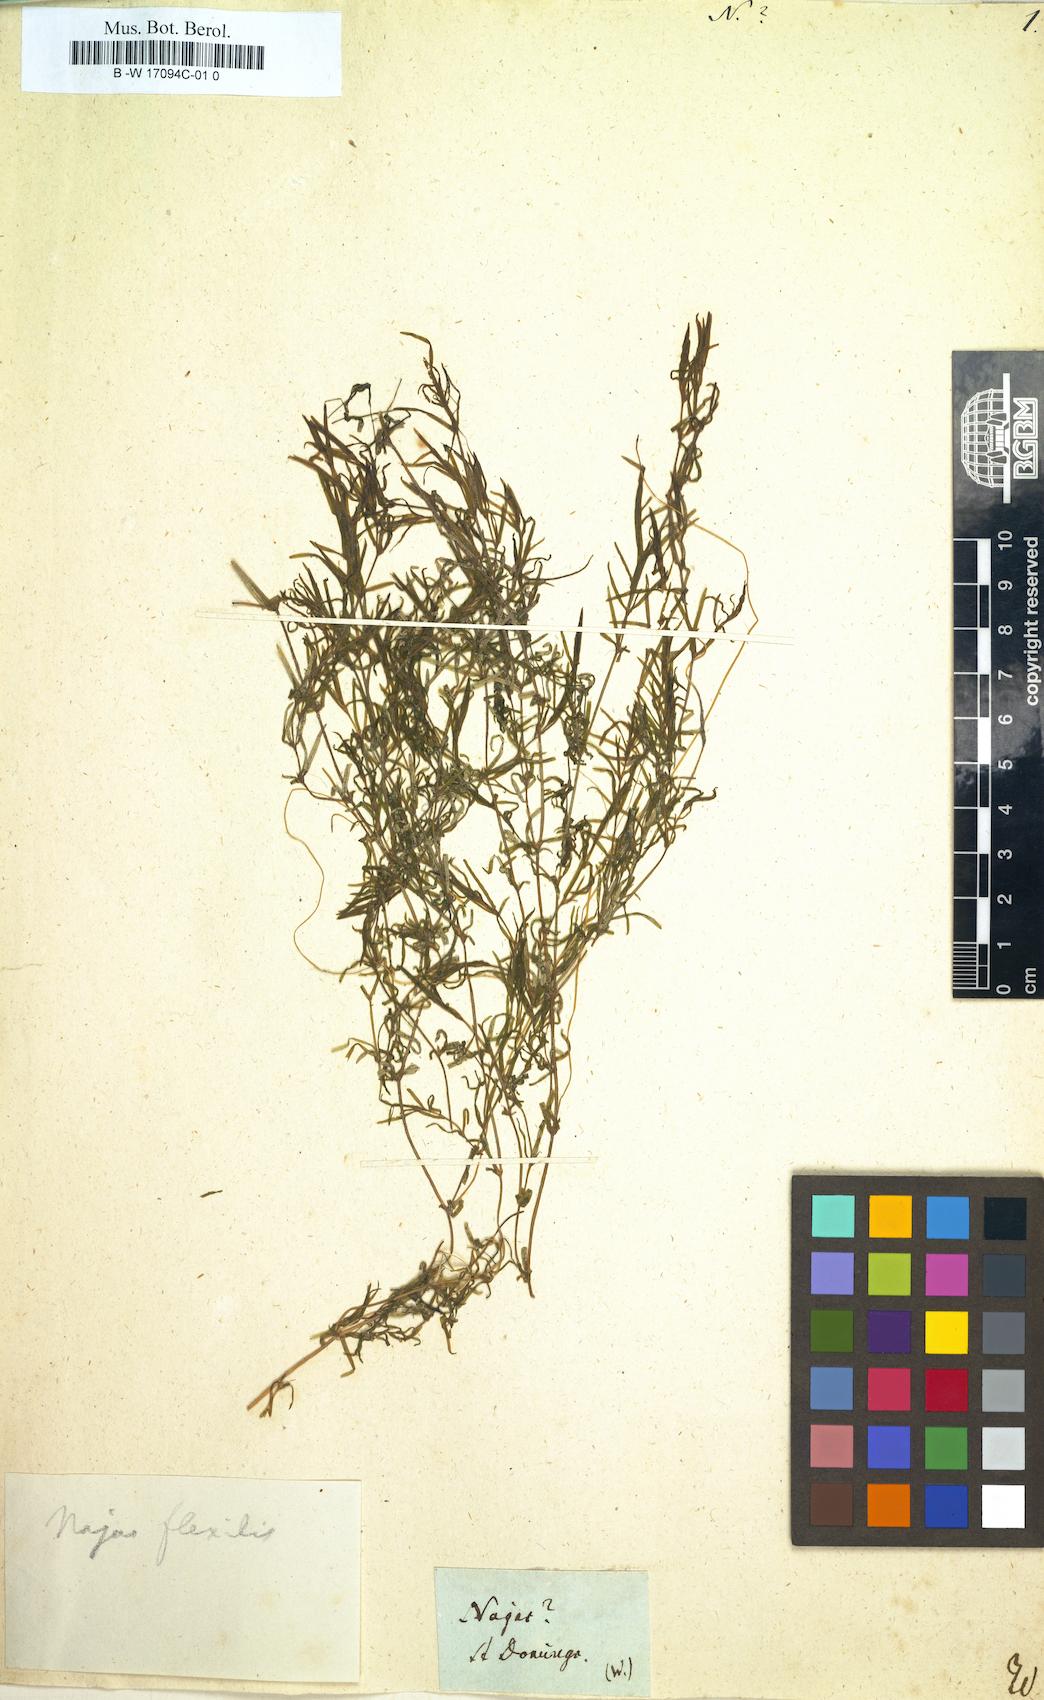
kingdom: Plantae
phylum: Tracheophyta
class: Liliopsida
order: Alismatales
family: Hydrocharitaceae
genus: Najas
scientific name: Najas
